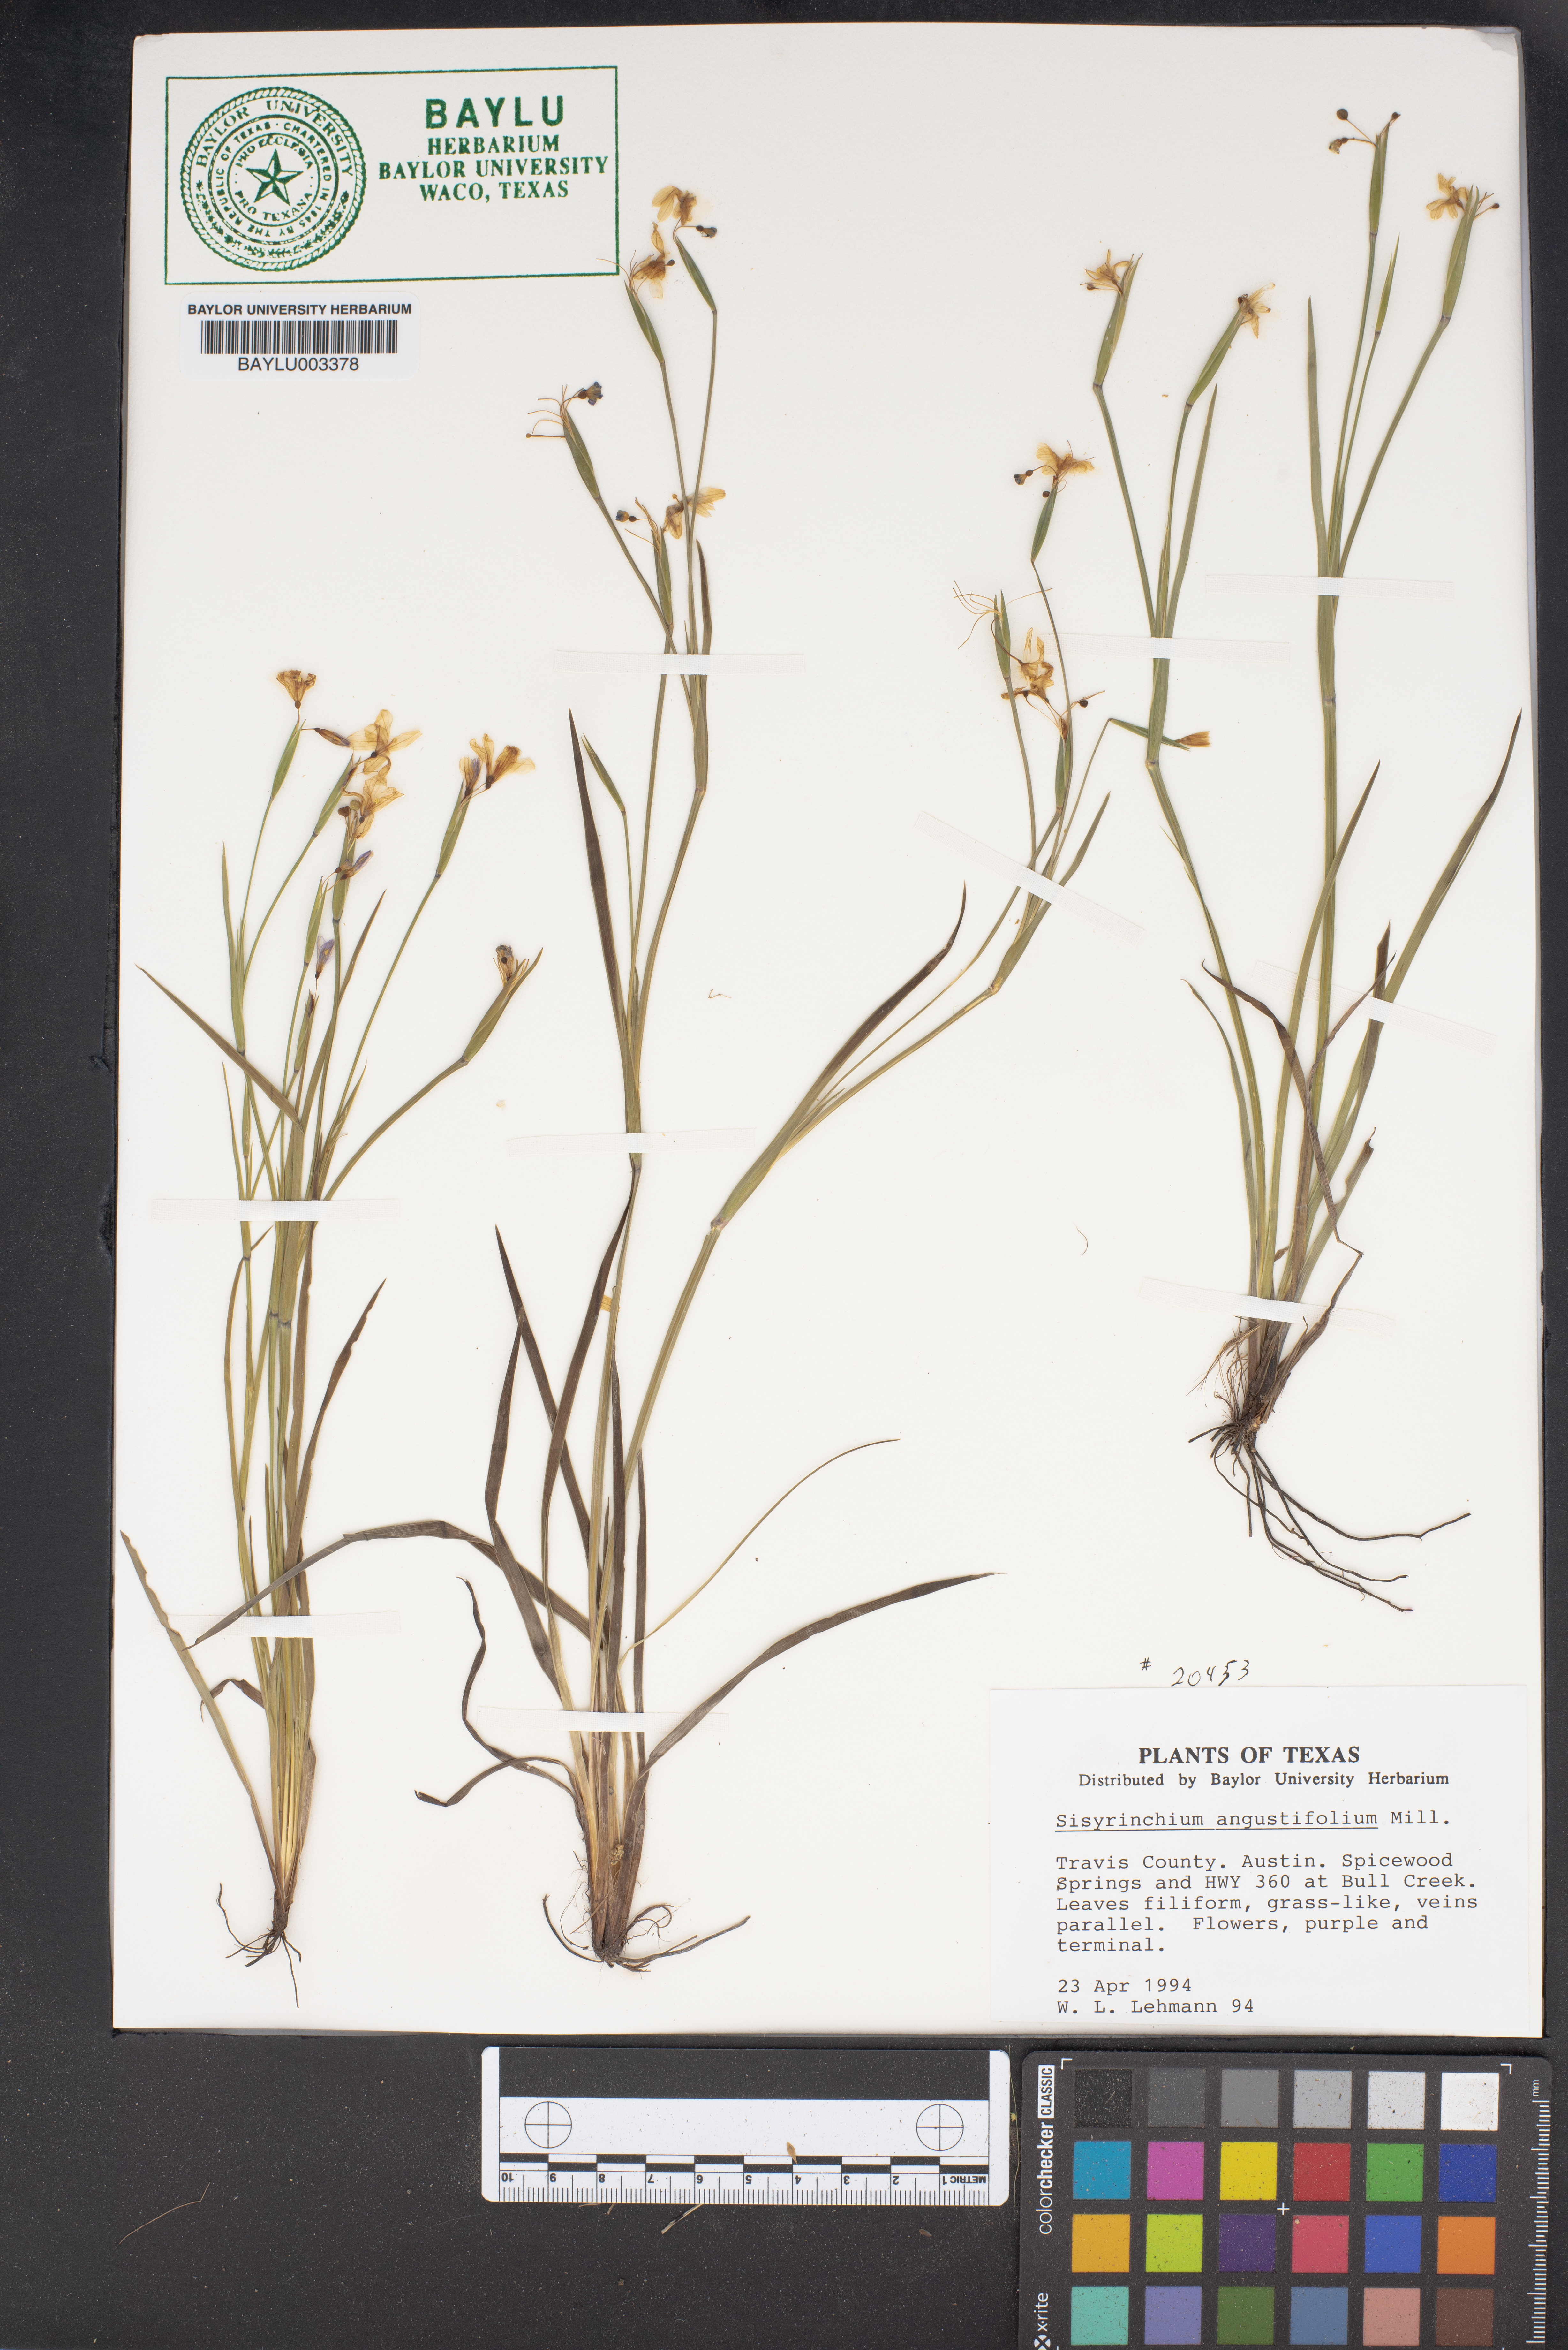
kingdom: Plantae
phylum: Tracheophyta
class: Liliopsida
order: Asparagales
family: Iridaceae
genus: Sisyrinchium
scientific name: Sisyrinchium angustifolium
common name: Narrow-leaf blue-eyed-grass
